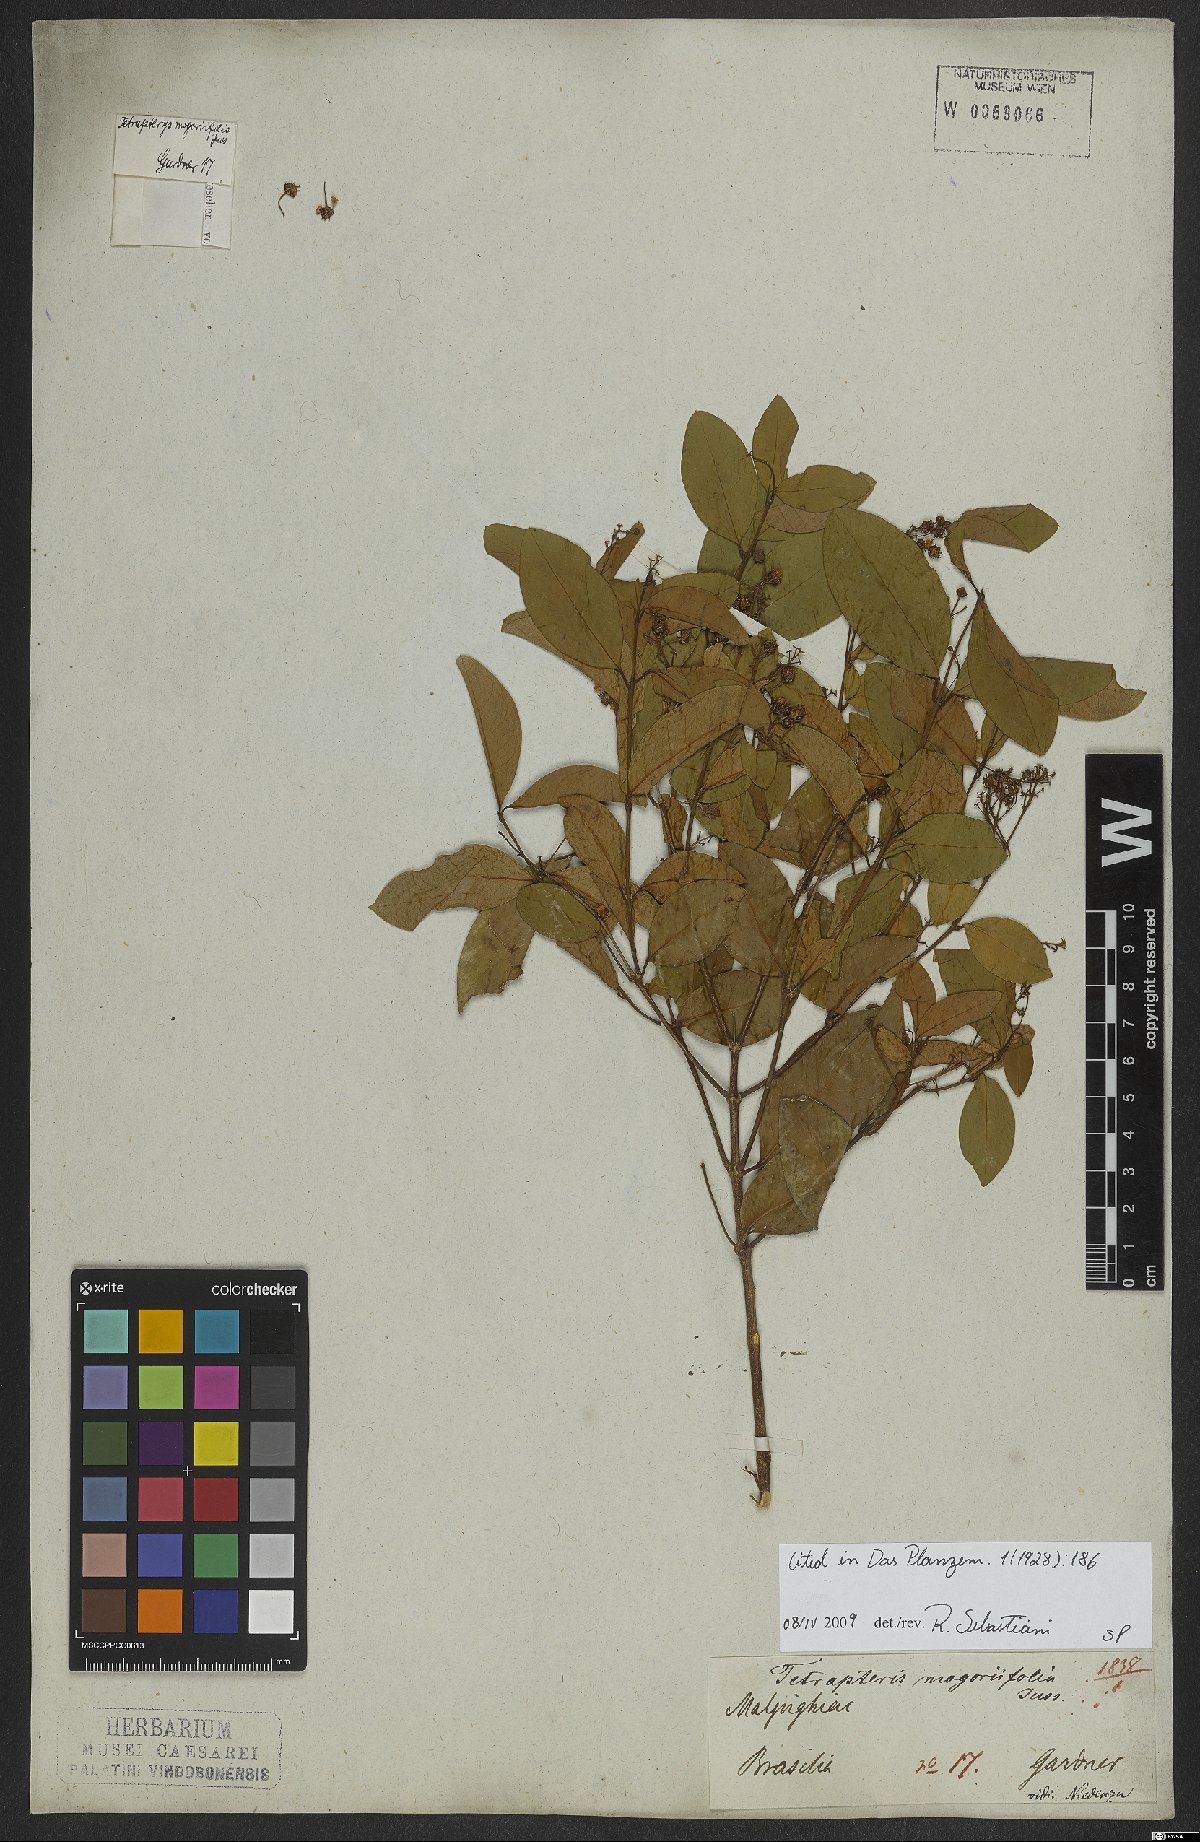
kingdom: Plantae
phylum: Tracheophyta
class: Magnoliopsida
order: Malpighiales
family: Malpighiaceae
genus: Niedenzuella
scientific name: Niedenzuella mogoriifolia
